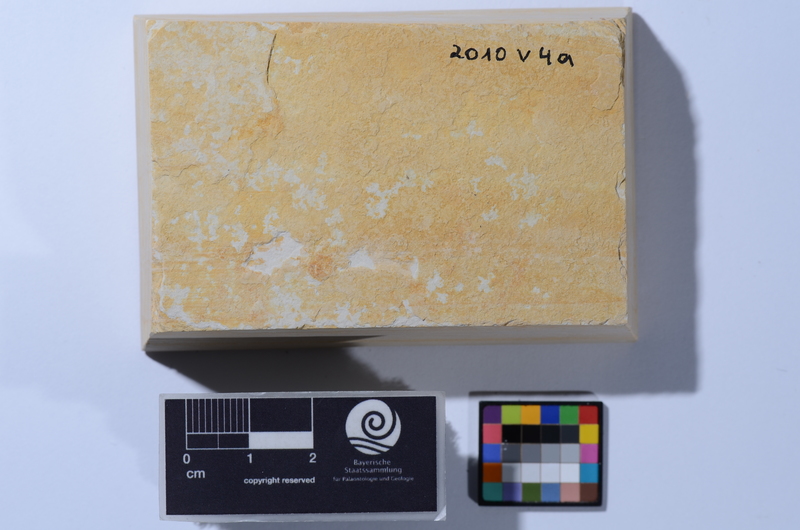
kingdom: Animalia
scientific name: Animalia
